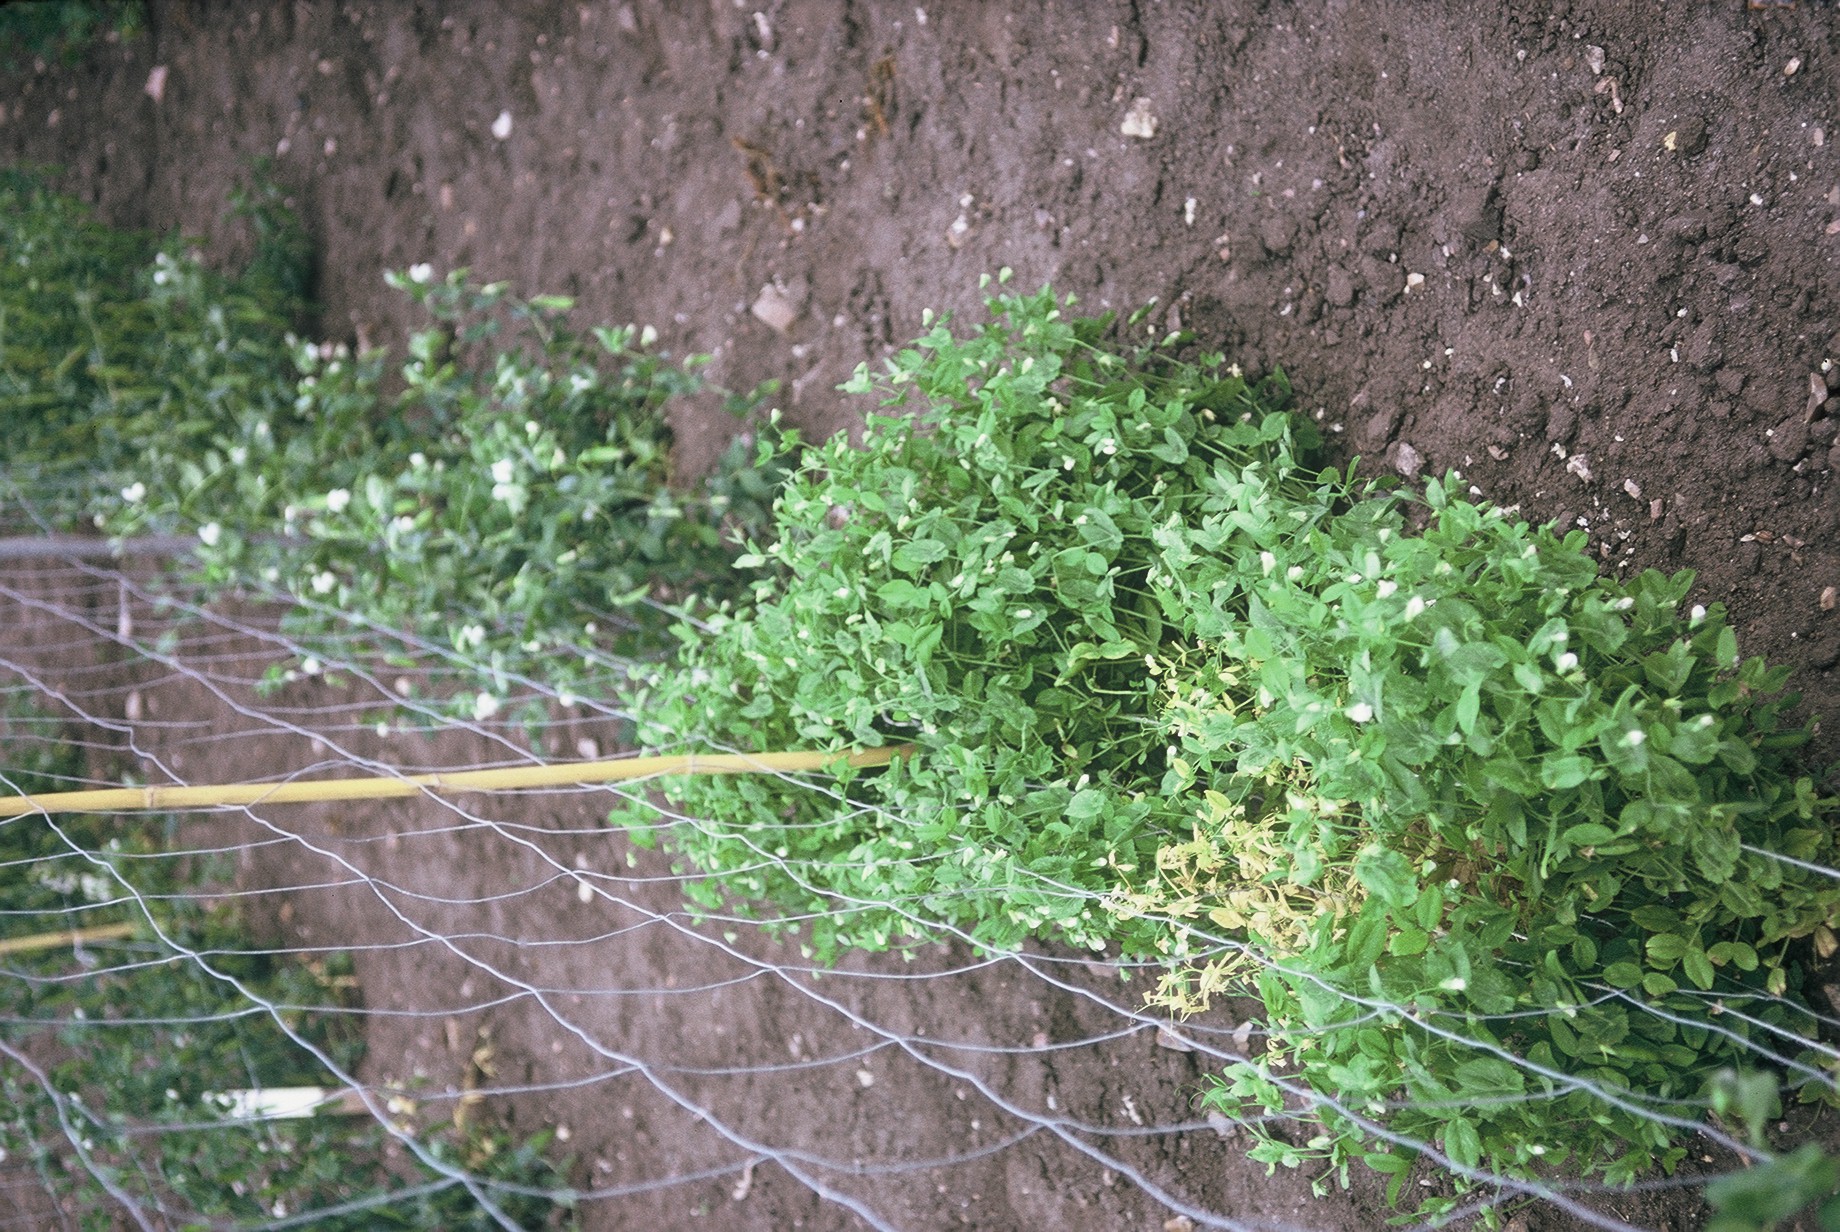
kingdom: Plantae
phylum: Tracheophyta
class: Magnoliopsida
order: Fabales
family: Fabaceae
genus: Lathyrus
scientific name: Lathyrus oleraceus
